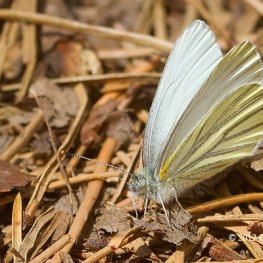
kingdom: Animalia
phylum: Arthropoda
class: Insecta
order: Lepidoptera
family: Pieridae
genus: Pieris
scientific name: Pieris oleracea
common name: Mustard White
